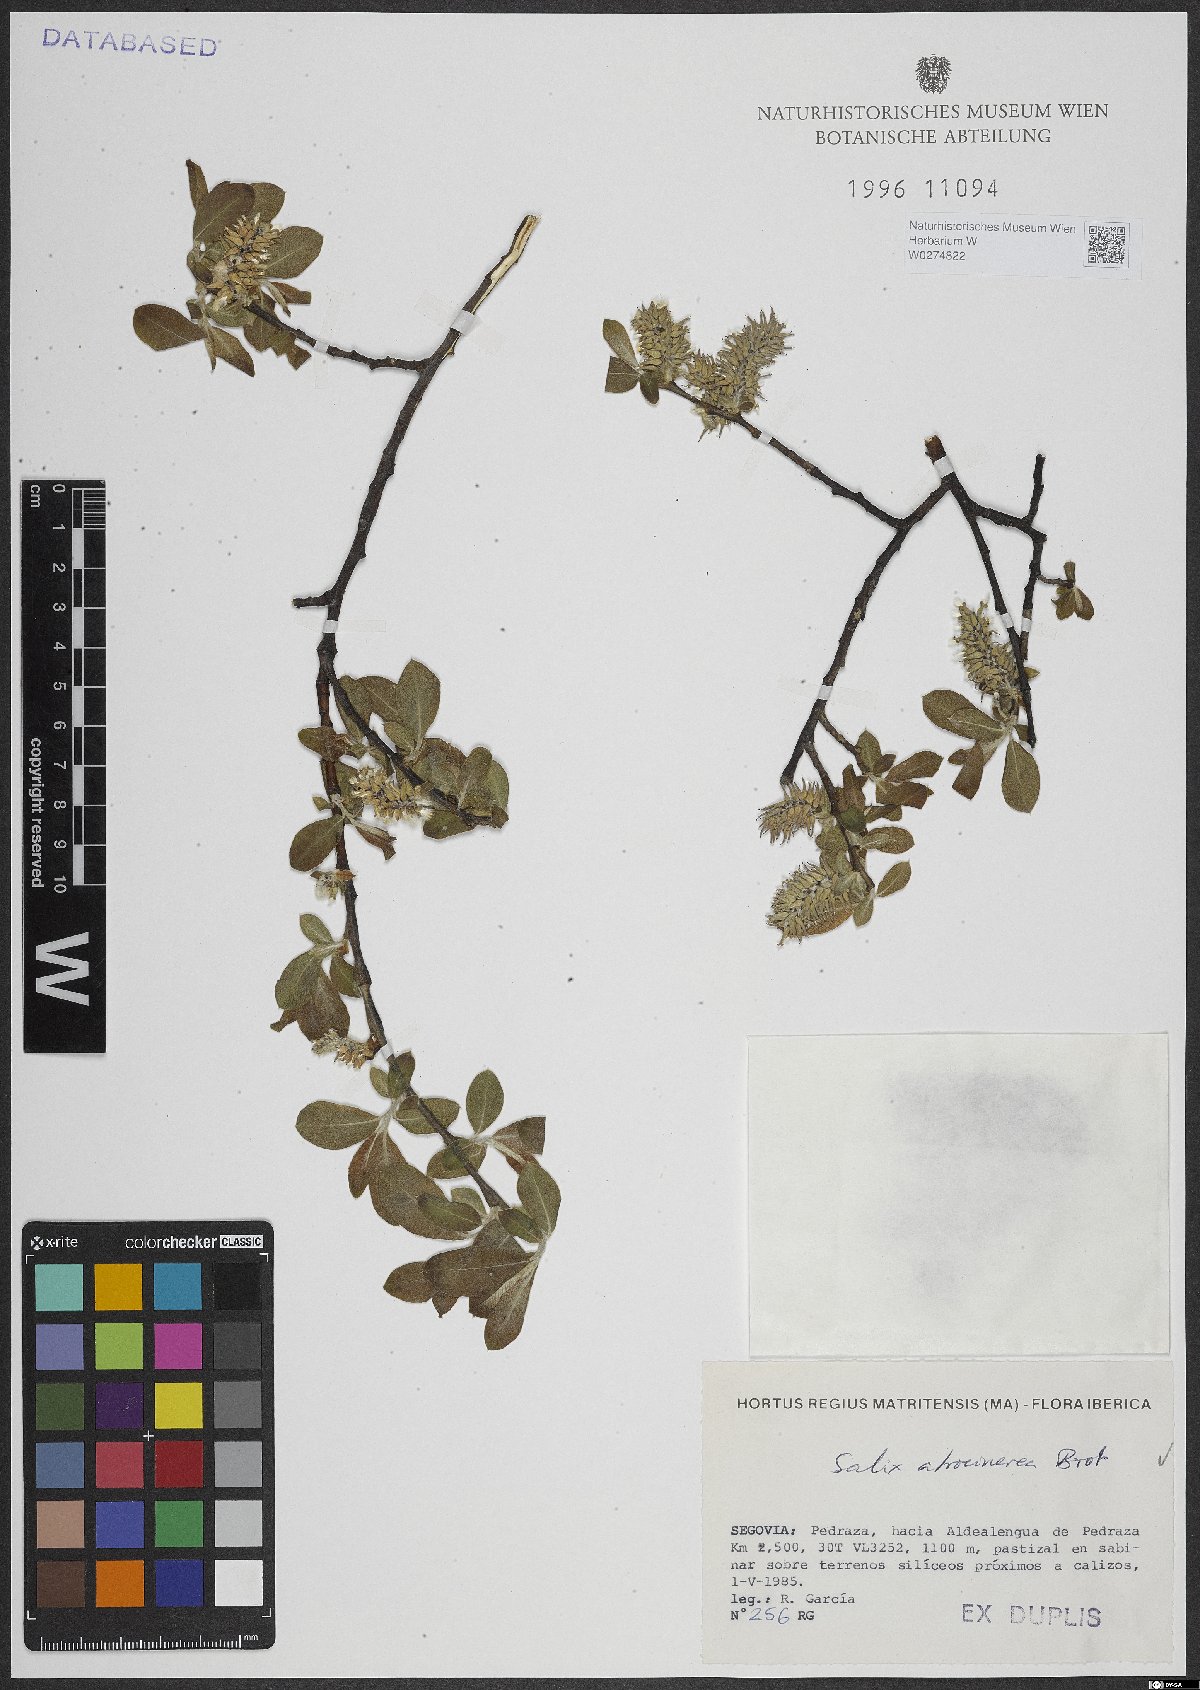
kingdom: Plantae
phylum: Tracheophyta
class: Magnoliopsida
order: Malpighiales
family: Salicaceae
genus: Salix
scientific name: Salix atrocinerea
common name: Rusty willow
